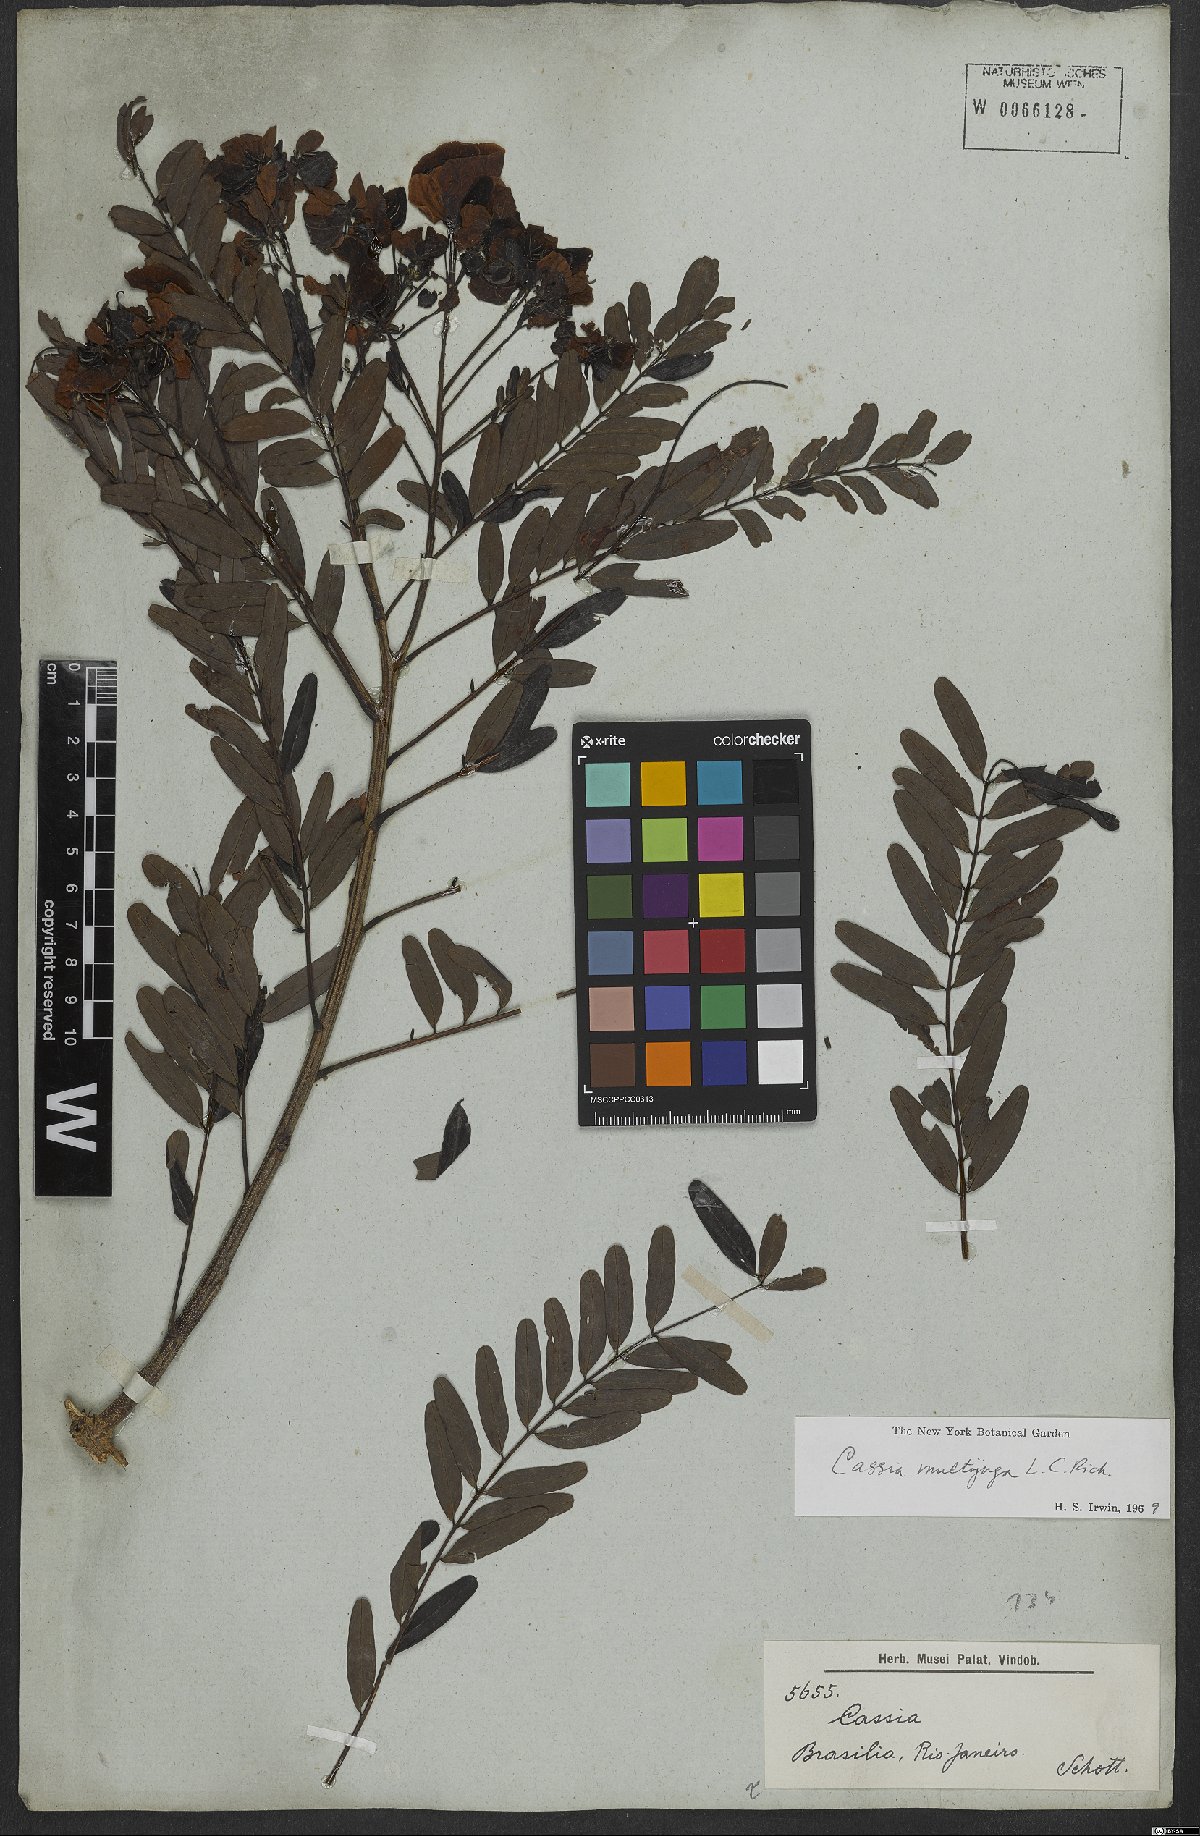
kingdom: Plantae
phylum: Tracheophyta
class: Magnoliopsida
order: Fabales
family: Fabaceae
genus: Senna
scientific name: Senna multijuga
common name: False sicklepod
